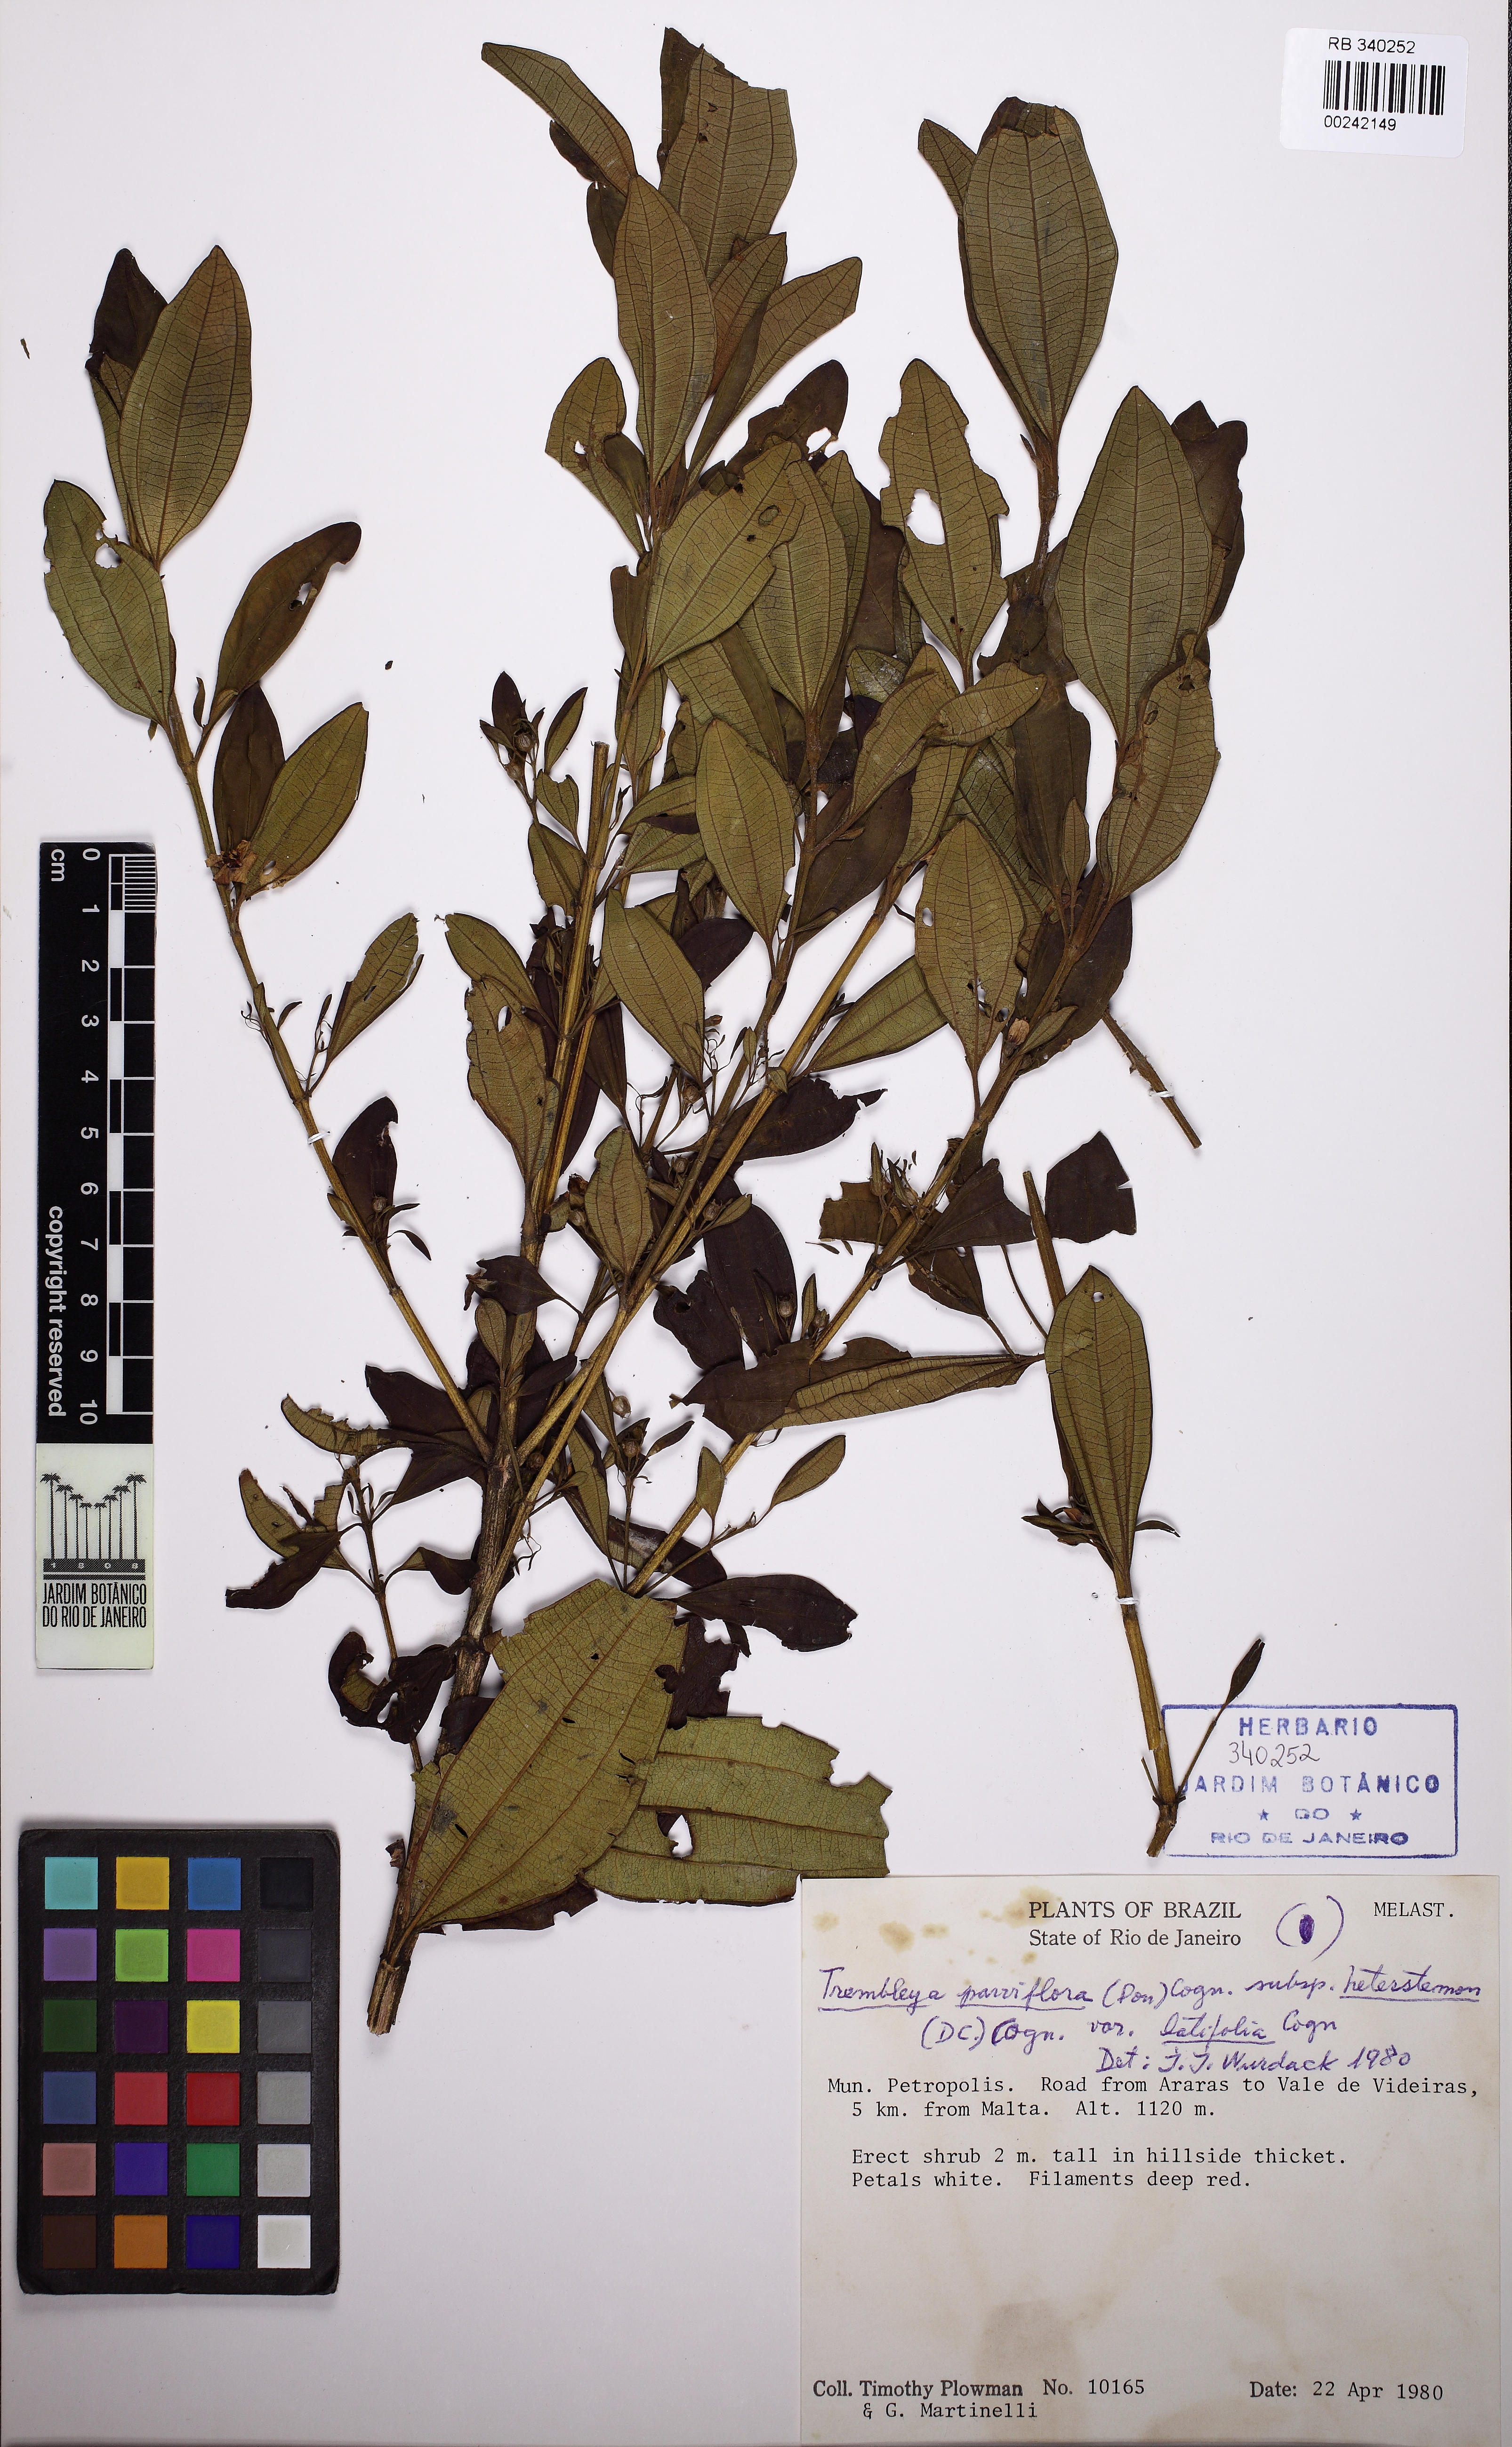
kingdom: Plantae
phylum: Tracheophyta
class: Magnoliopsida
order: Myrtales
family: Melastomataceae
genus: Microlicia
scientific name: Microlicia parviflora
